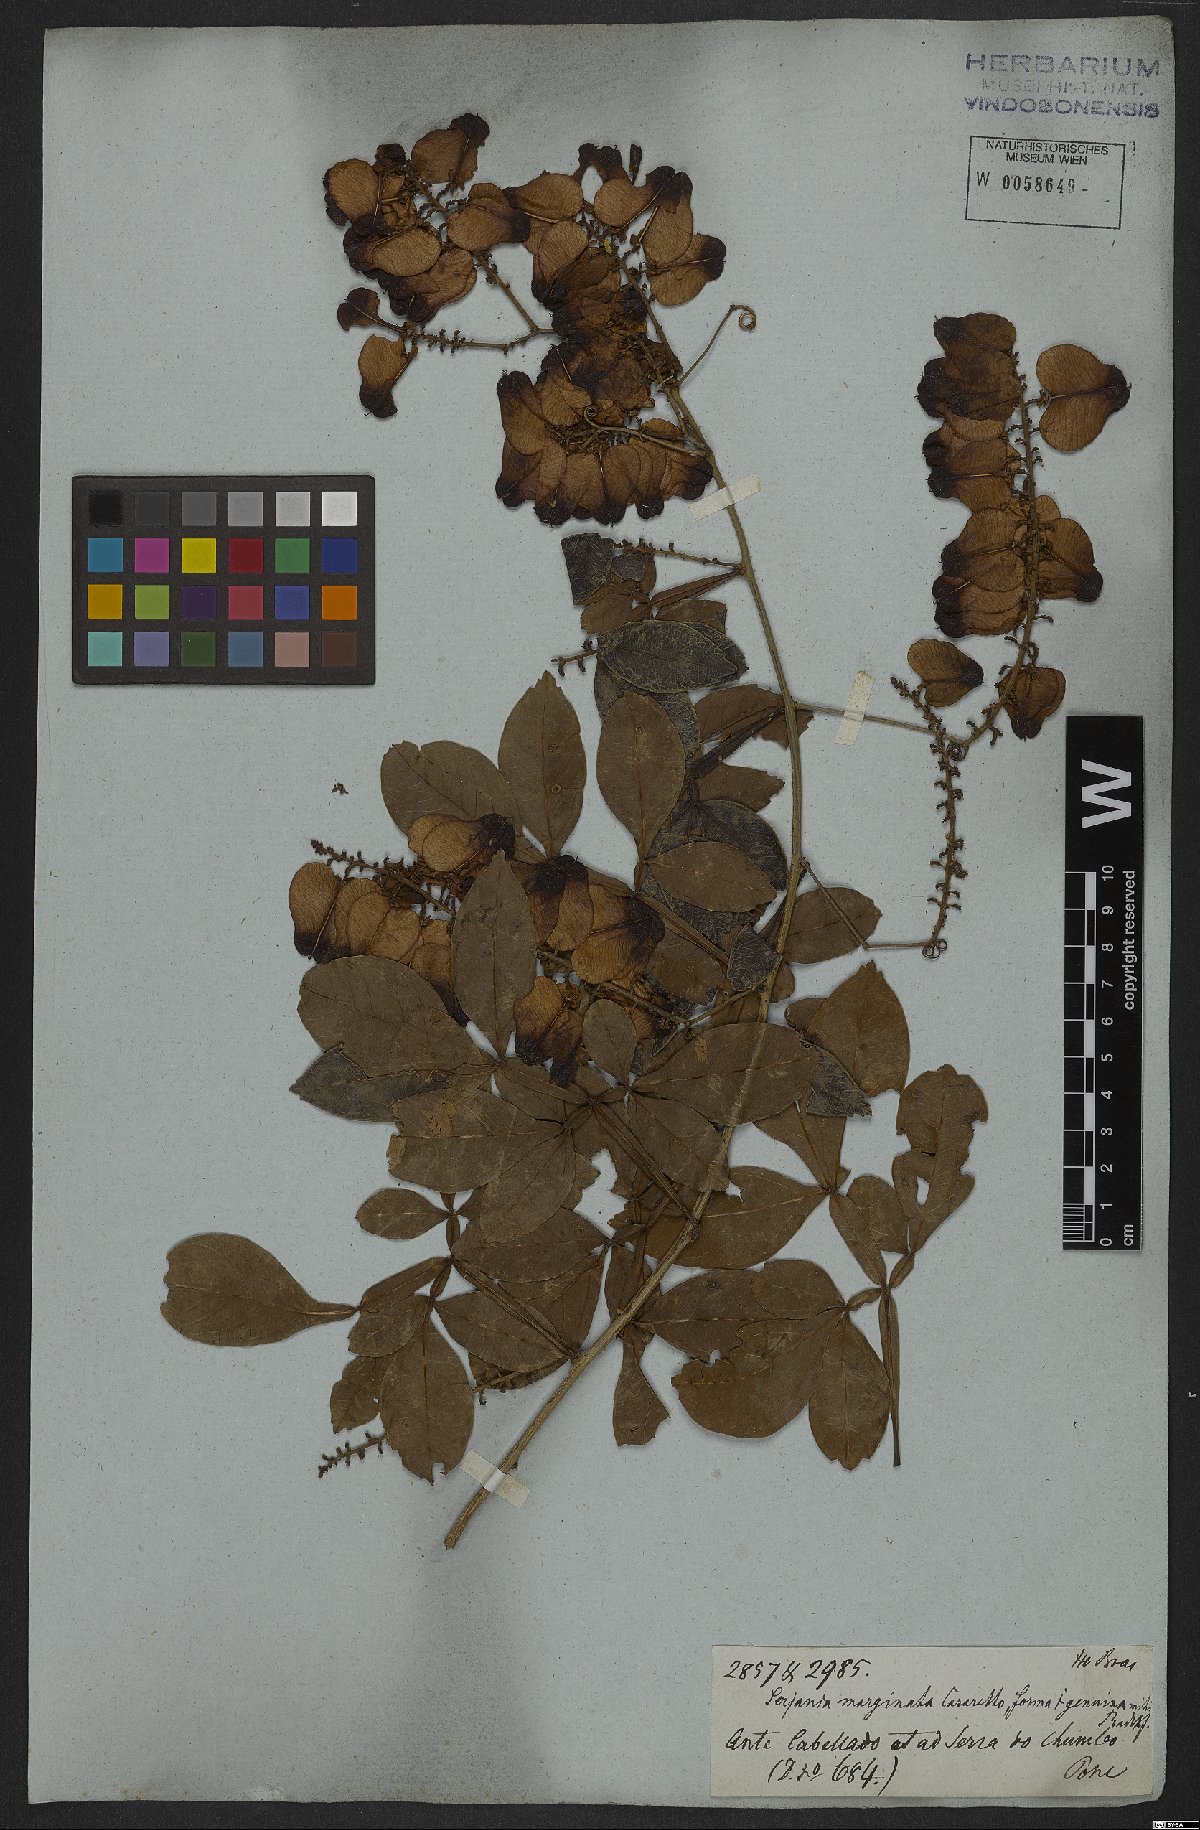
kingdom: Plantae
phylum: Tracheophyta
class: Magnoliopsida
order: Sapindales
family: Sapindaceae
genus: Serjania
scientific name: Serjania marginata
